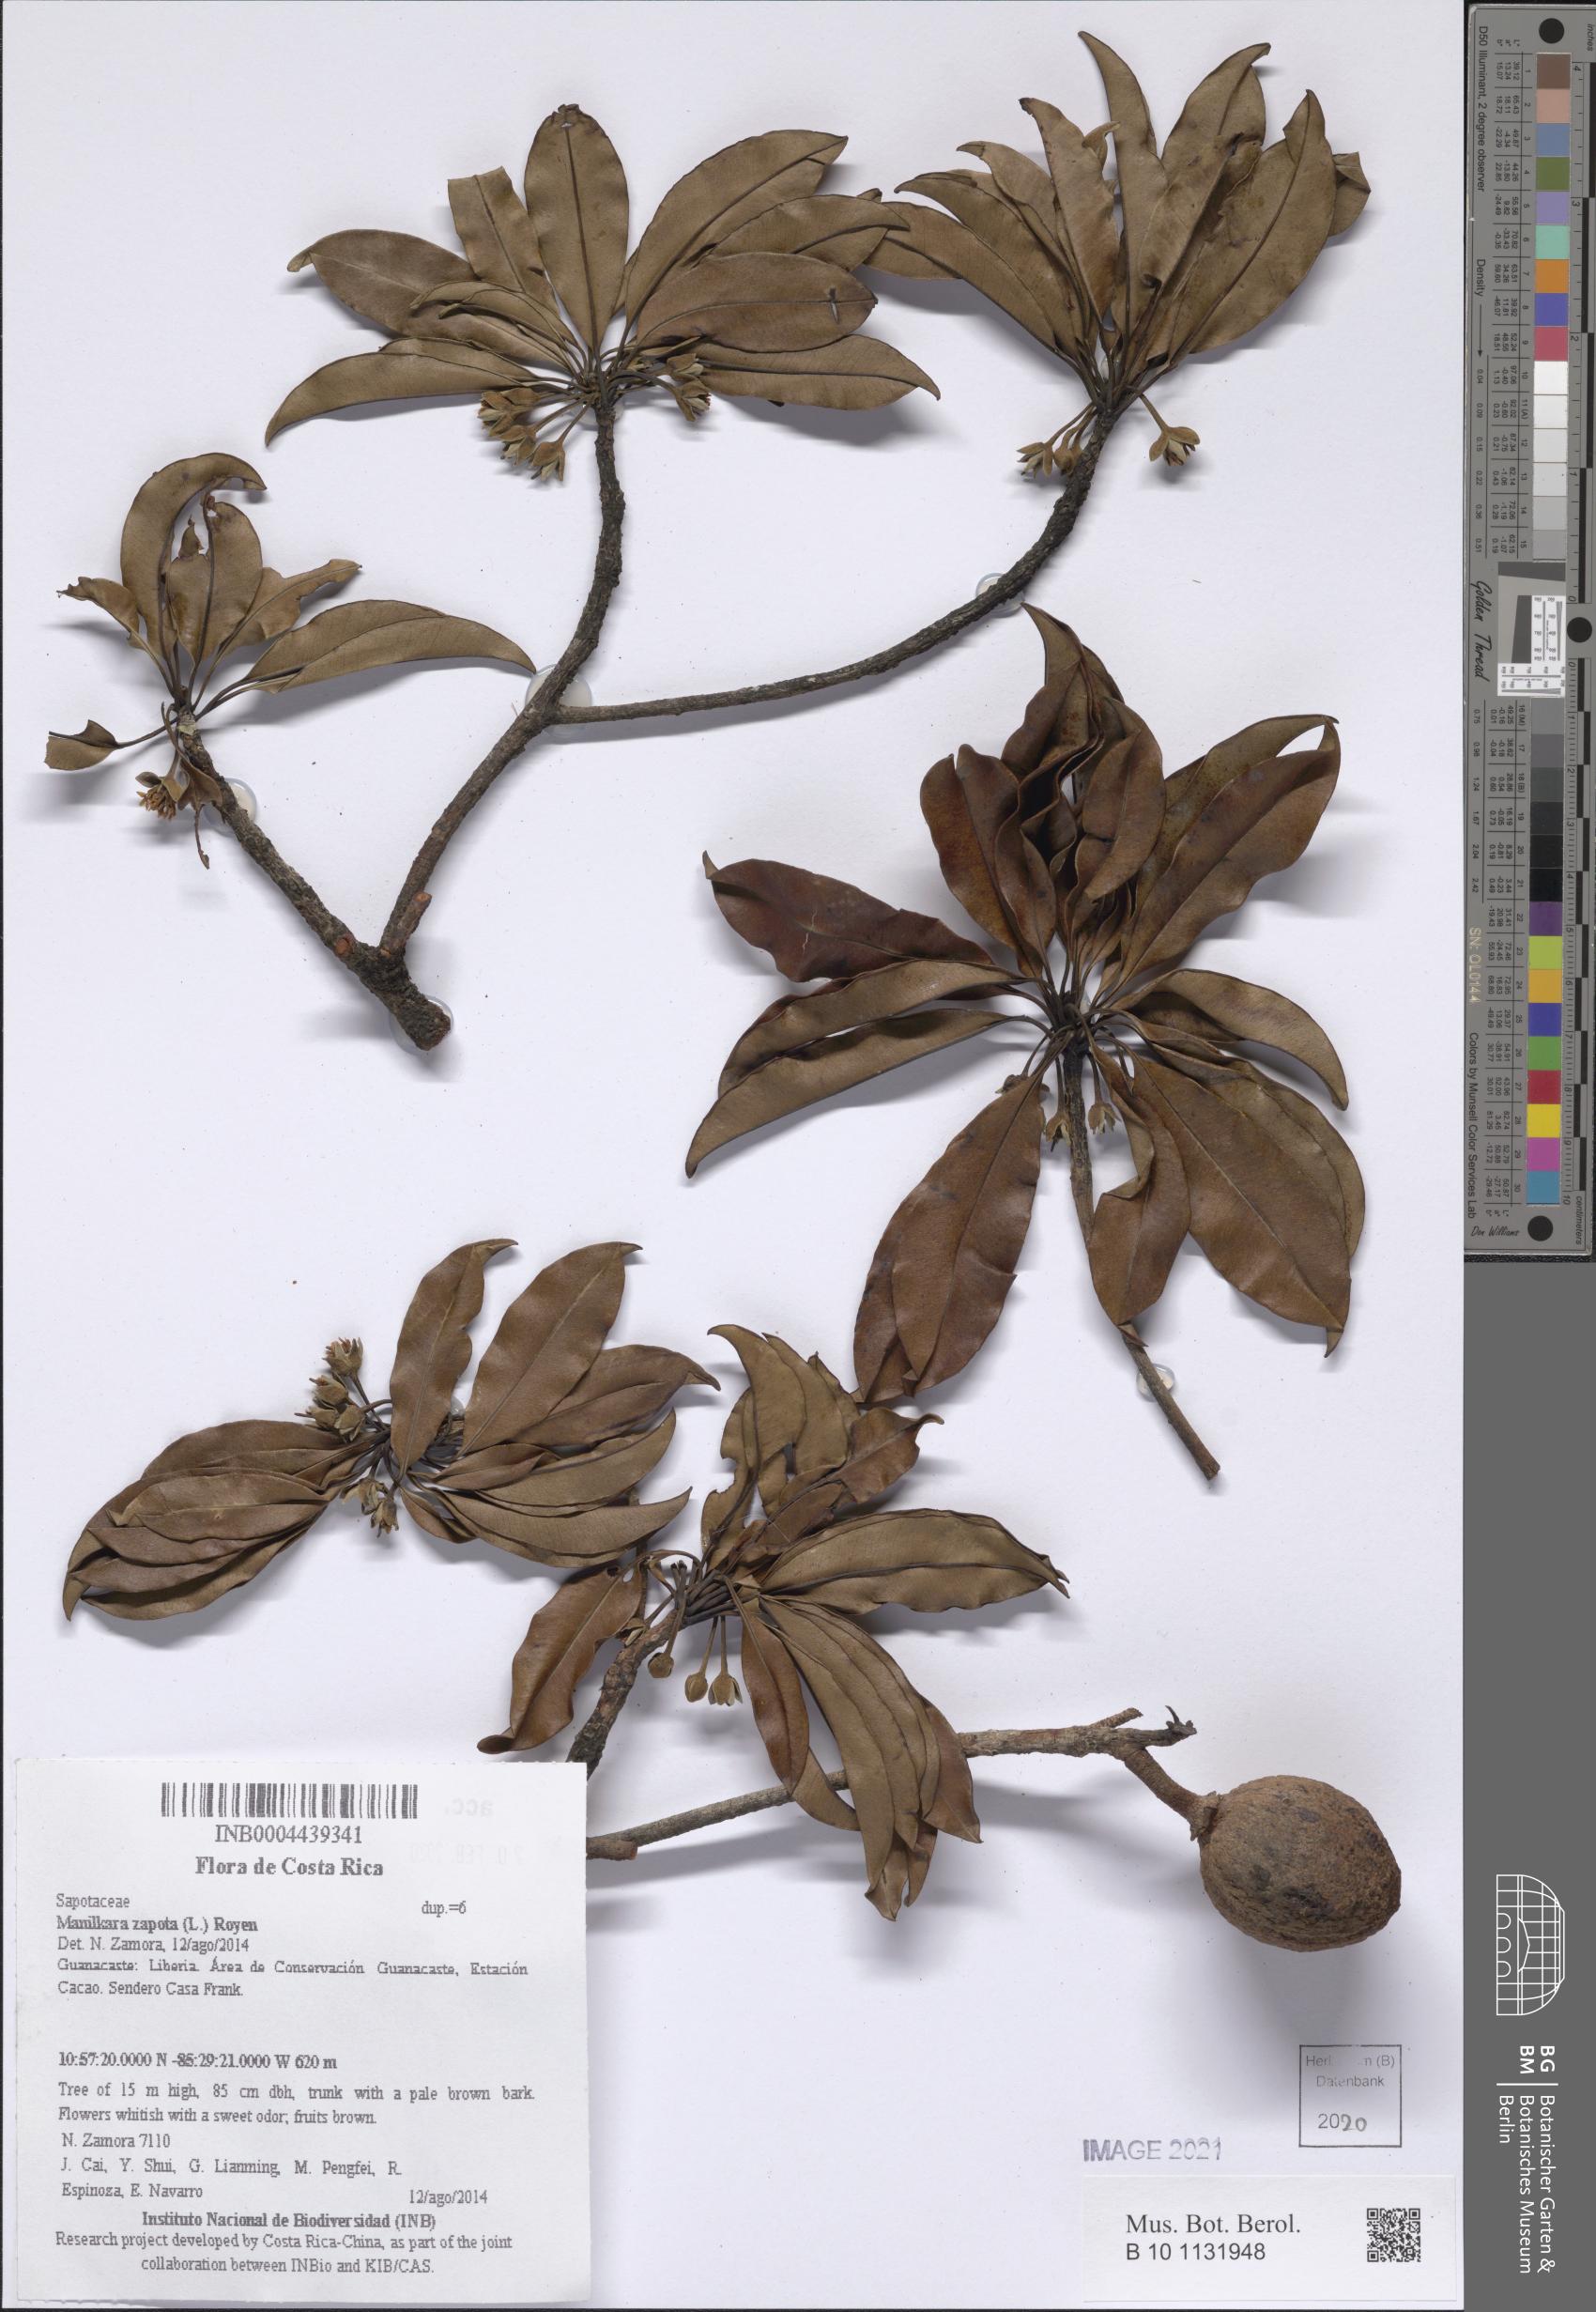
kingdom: Plantae
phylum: Tracheophyta
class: Magnoliopsida
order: Ericales
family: Sapotaceae
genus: Manilkara
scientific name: Manilkara zapota
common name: Sapodilla
